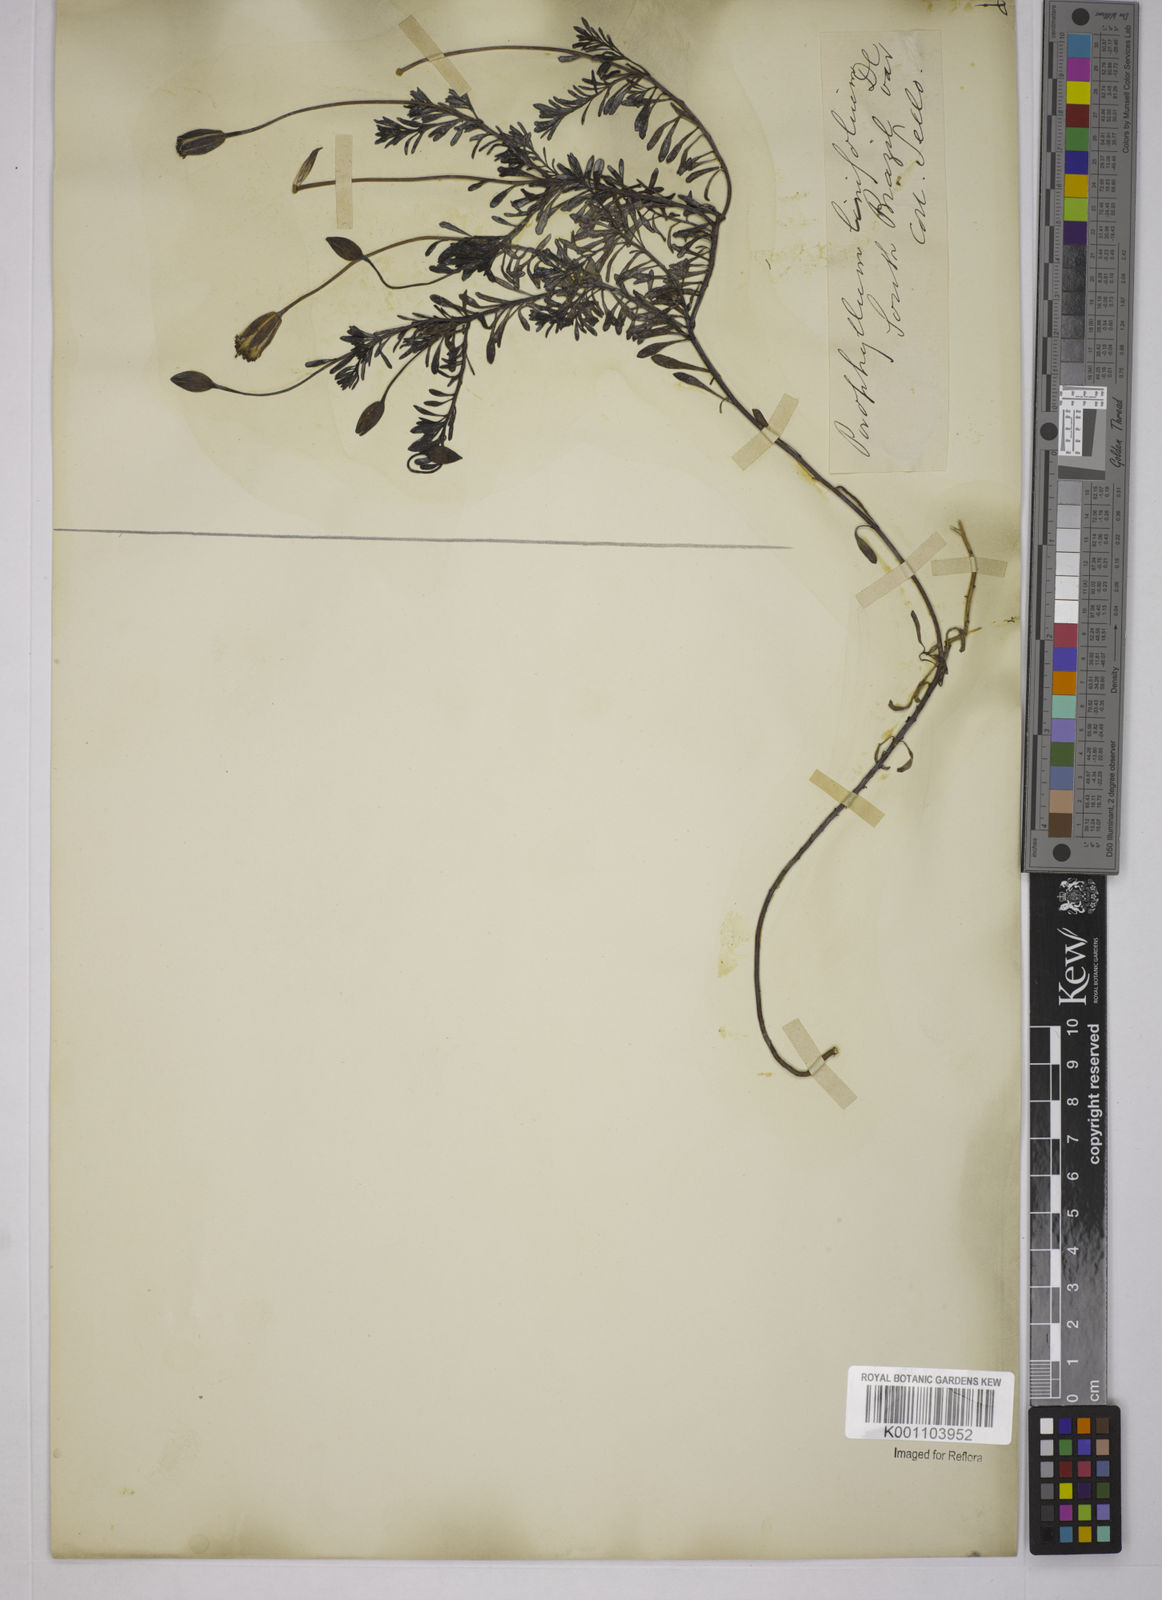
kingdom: Plantae
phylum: Tracheophyta
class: Magnoliopsida
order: Asterales
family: Asteraceae
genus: Porophyllum
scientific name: Porophyllum linifolium
